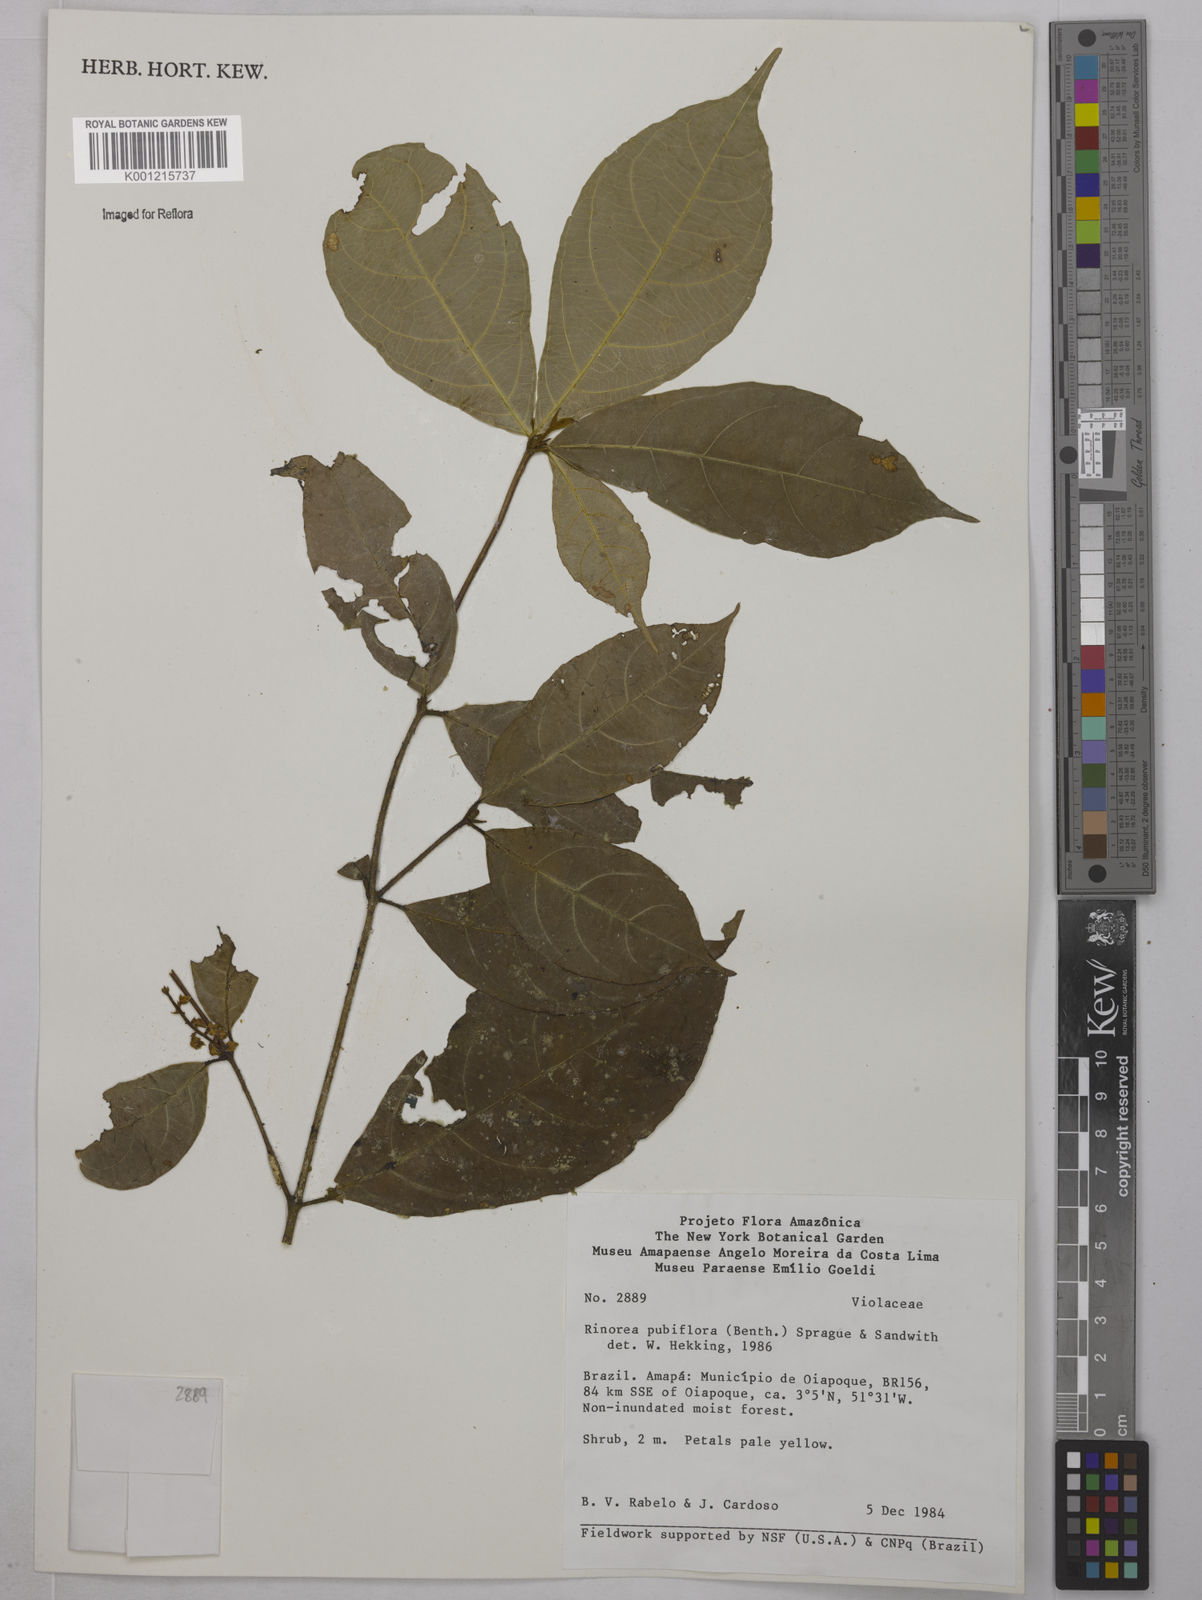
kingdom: Plantae
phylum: Tracheophyta
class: Magnoliopsida
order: Malpighiales
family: Violaceae
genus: Rinorea
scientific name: Rinorea pubiflora
